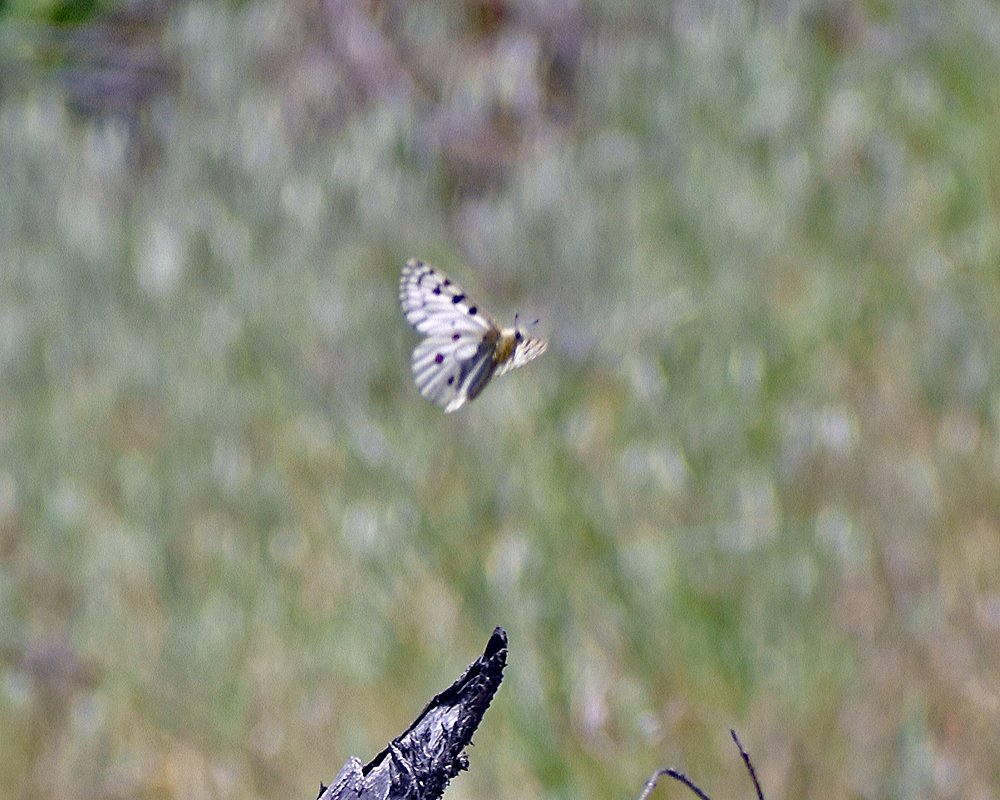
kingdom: Animalia
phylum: Arthropoda
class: Insecta
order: Lepidoptera
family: Papilionidae
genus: Parnassius
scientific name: Parnassius smintheus
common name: Rocky Mountain Parnassian
